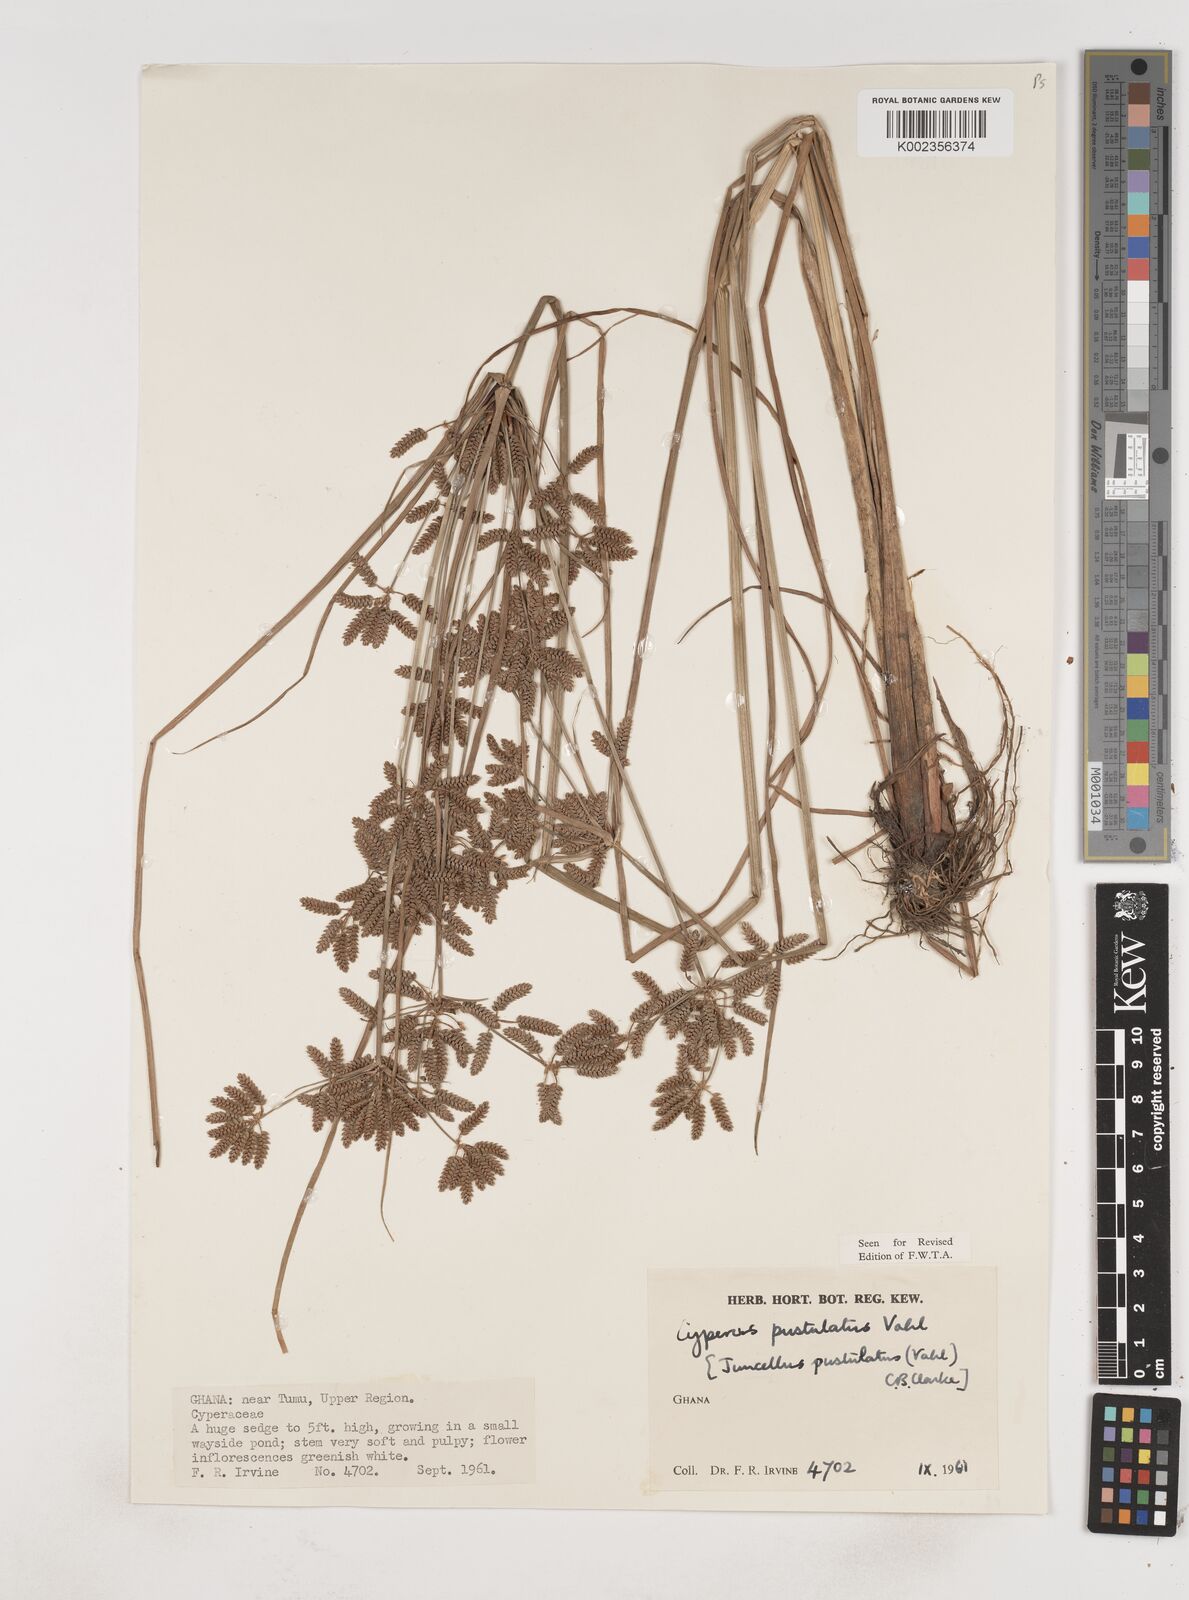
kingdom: Plantae
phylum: Tracheophyta
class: Liliopsida
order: Poales
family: Cyperaceae
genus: Cyperus
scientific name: Cyperus pustulatus
